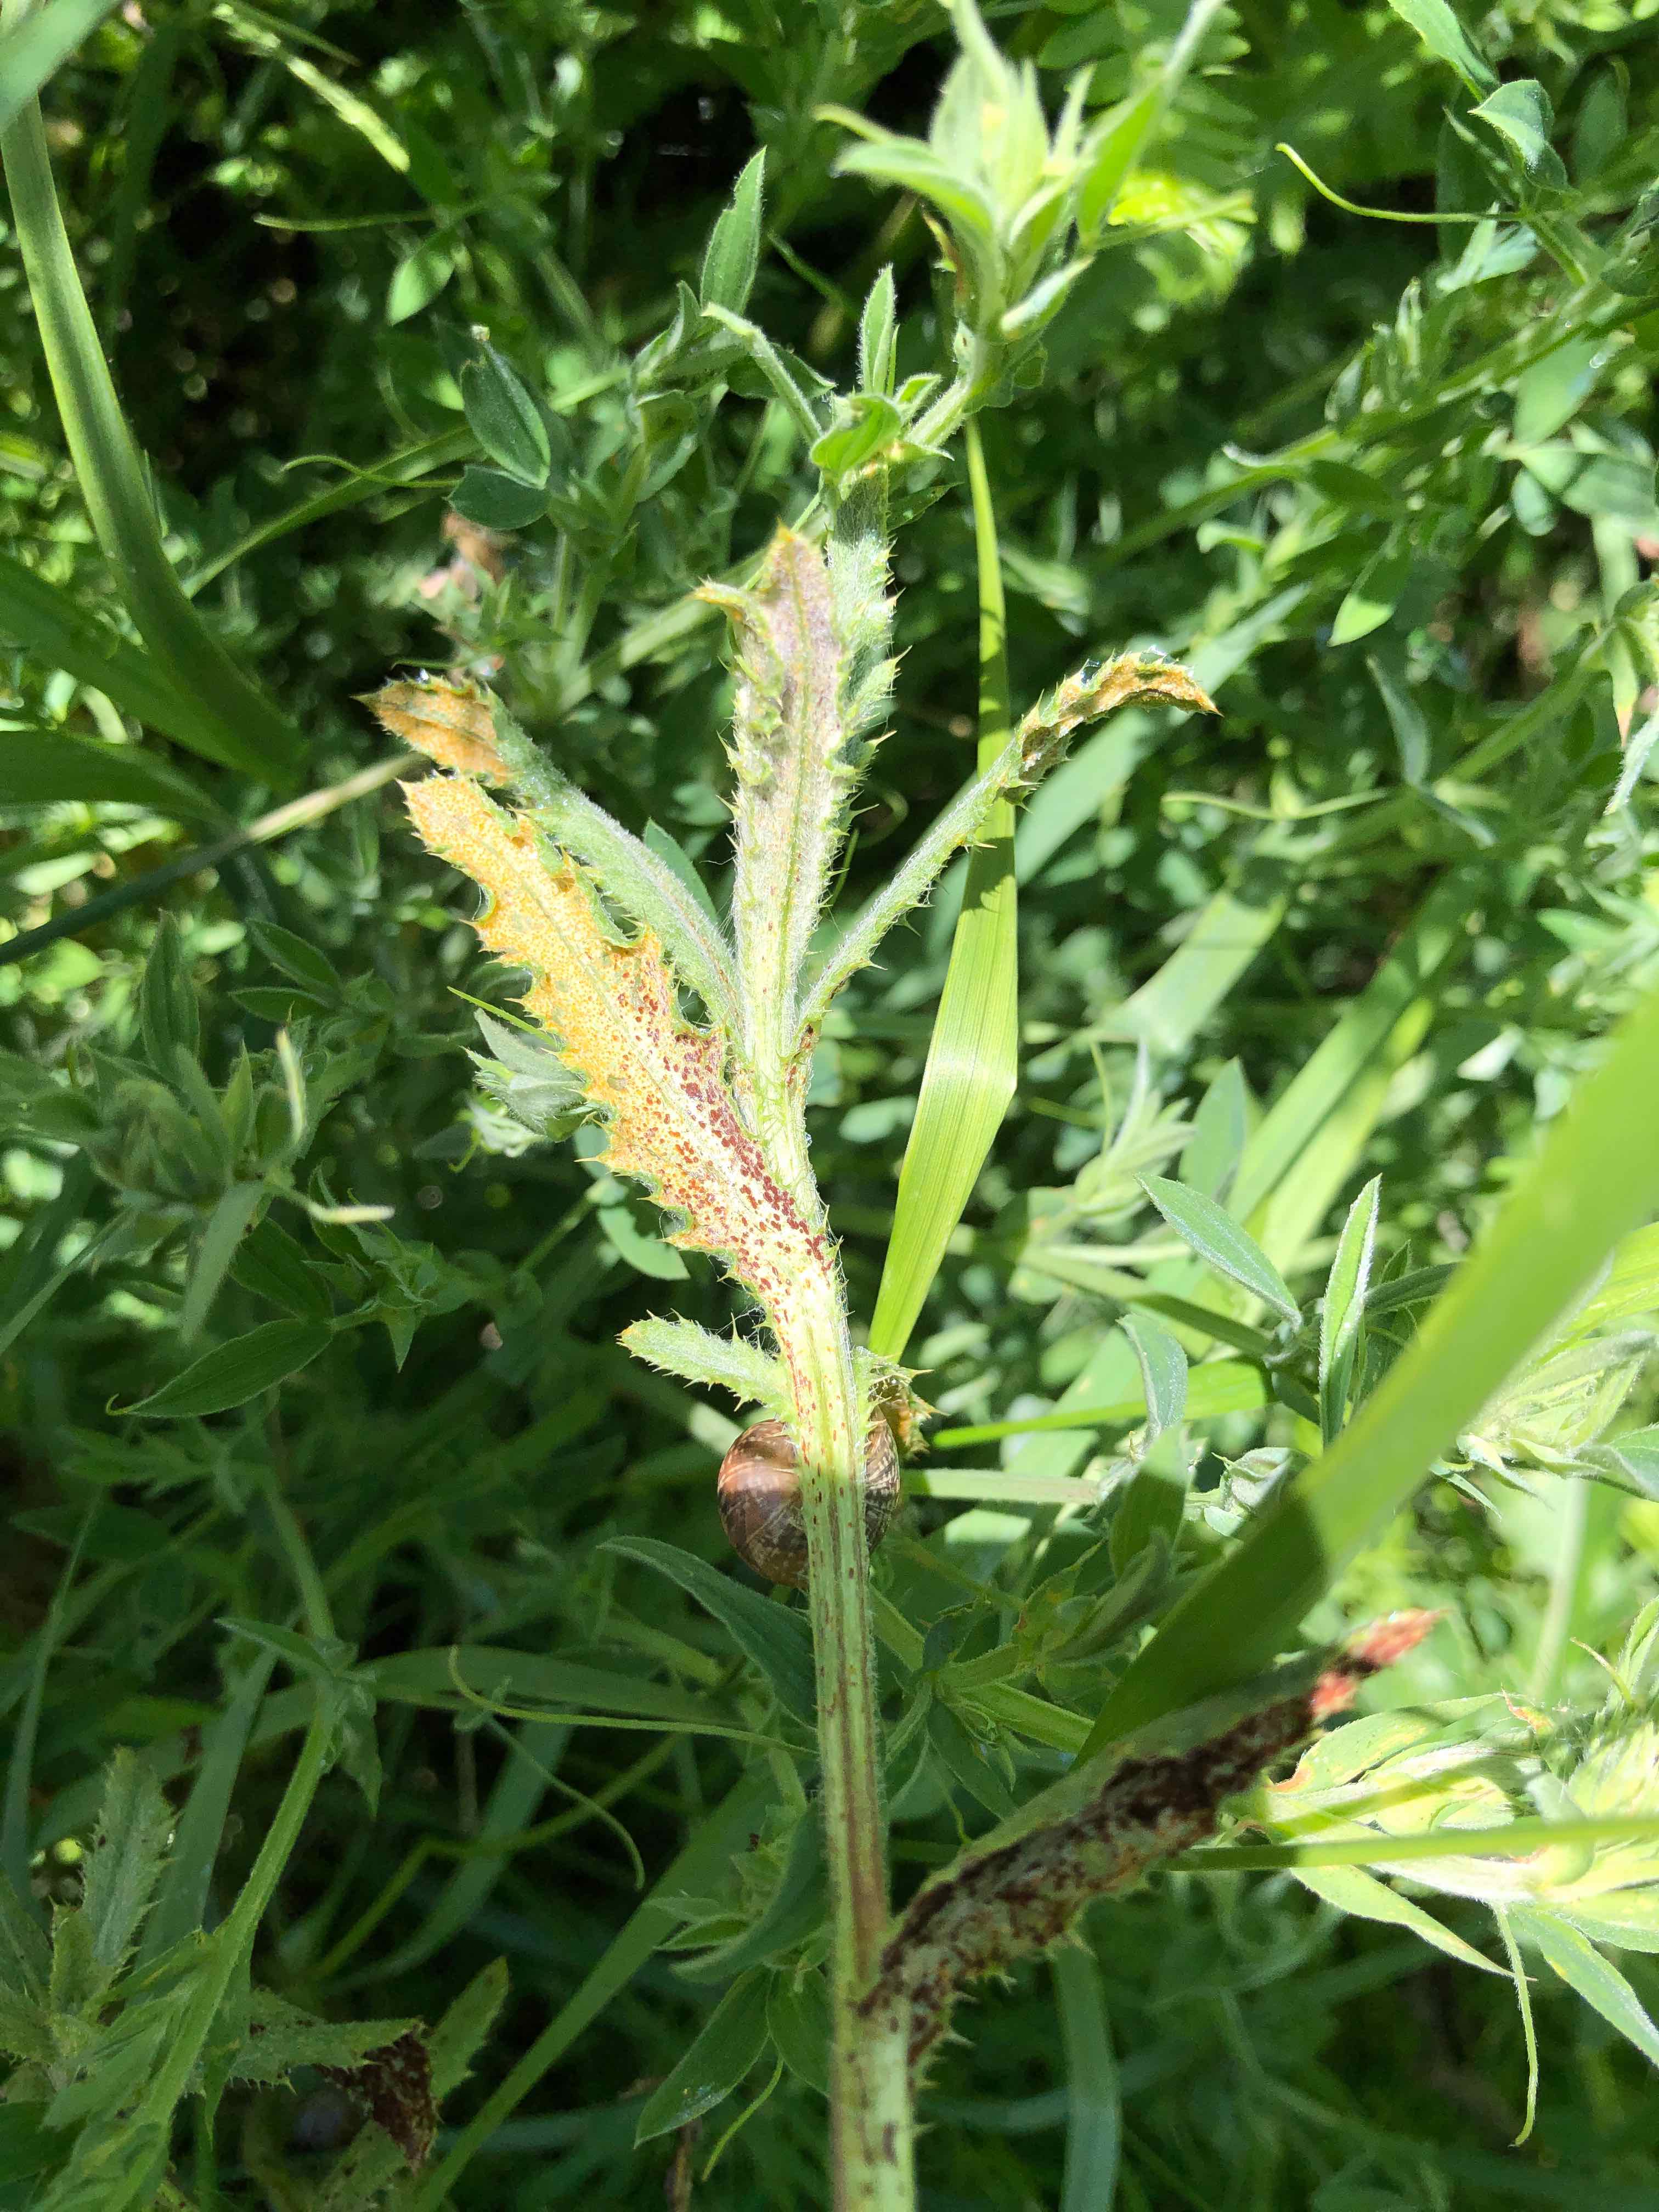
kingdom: Fungi
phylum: Basidiomycota
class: Pucciniomycetes
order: Pucciniales
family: Pucciniaceae
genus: Puccinia
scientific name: Puccinia suaveolens
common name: tidsel-tvecellerust
